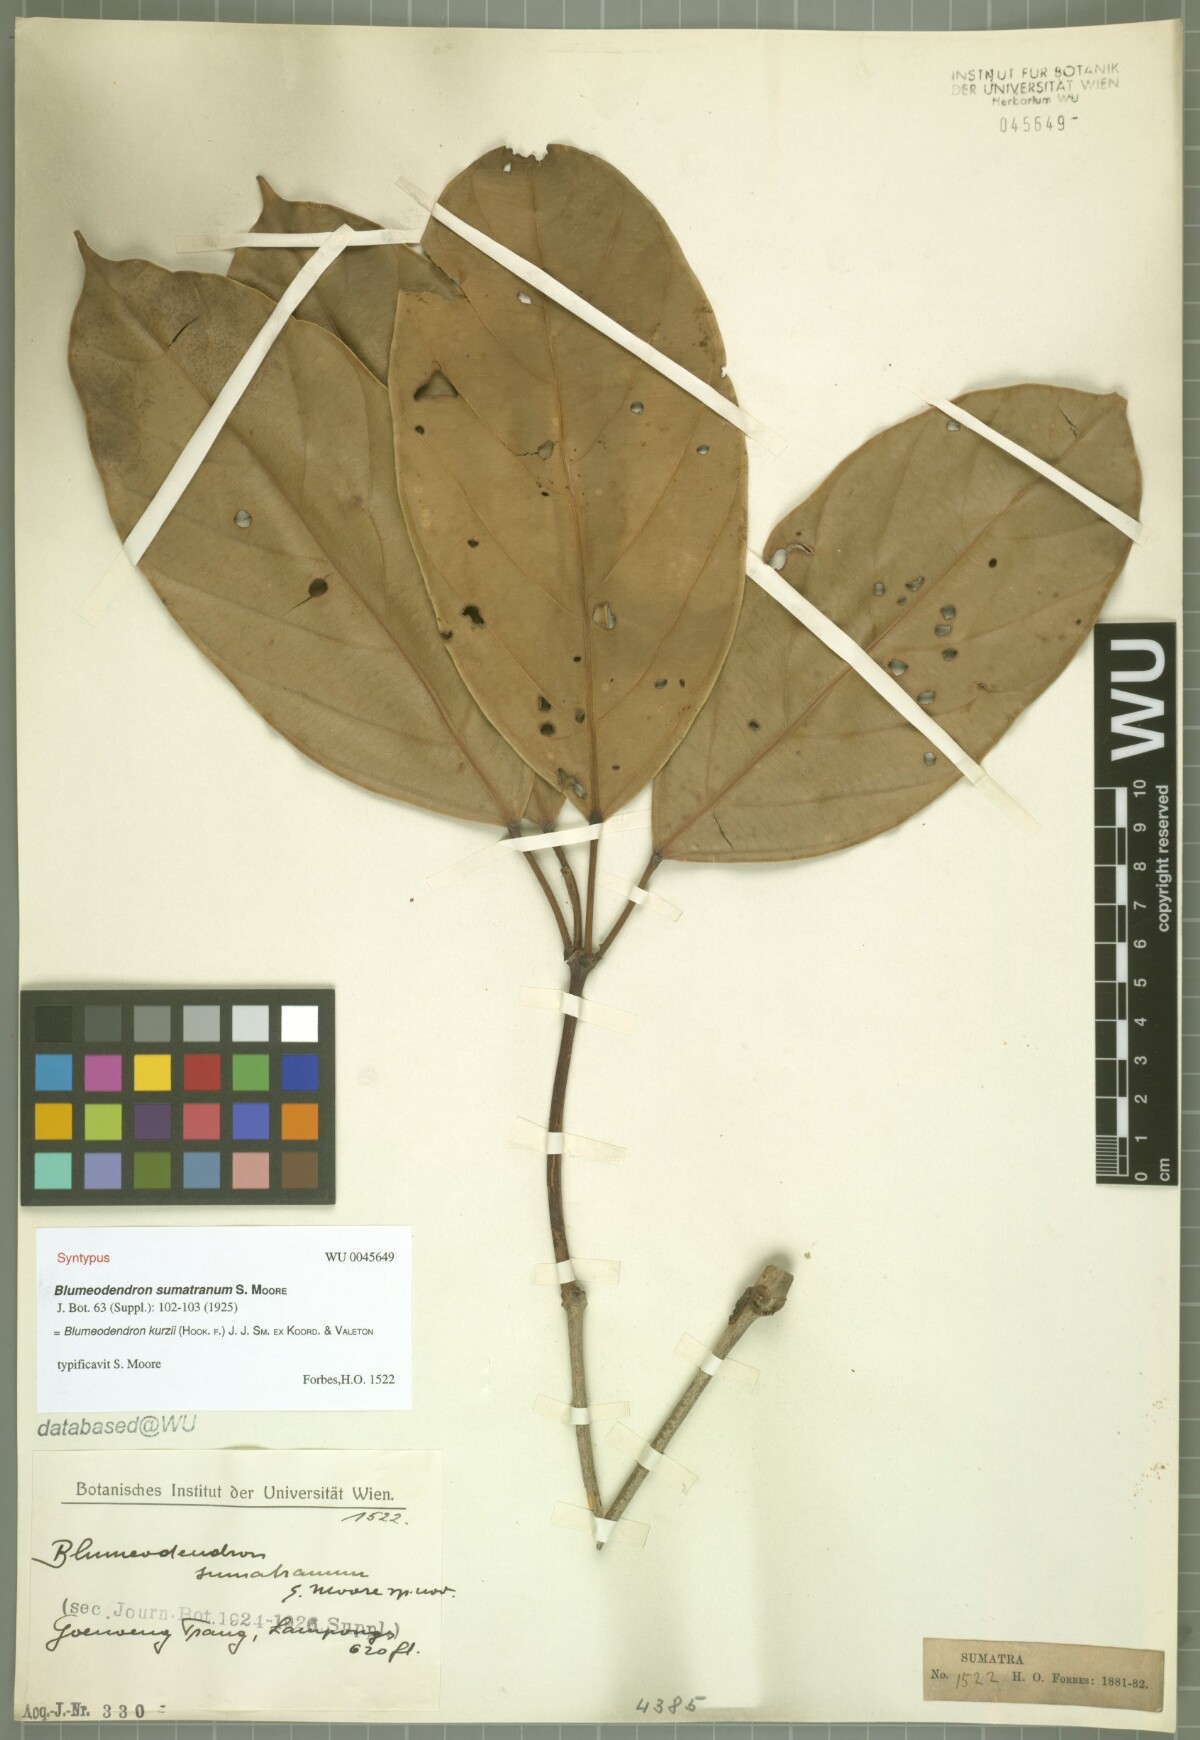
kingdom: Plantae
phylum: Tracheophyta
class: Magnoliopsida
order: Malpighiales
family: Euphorbiaceae
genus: Blumeodendron
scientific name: Blumeodendron kurzii
